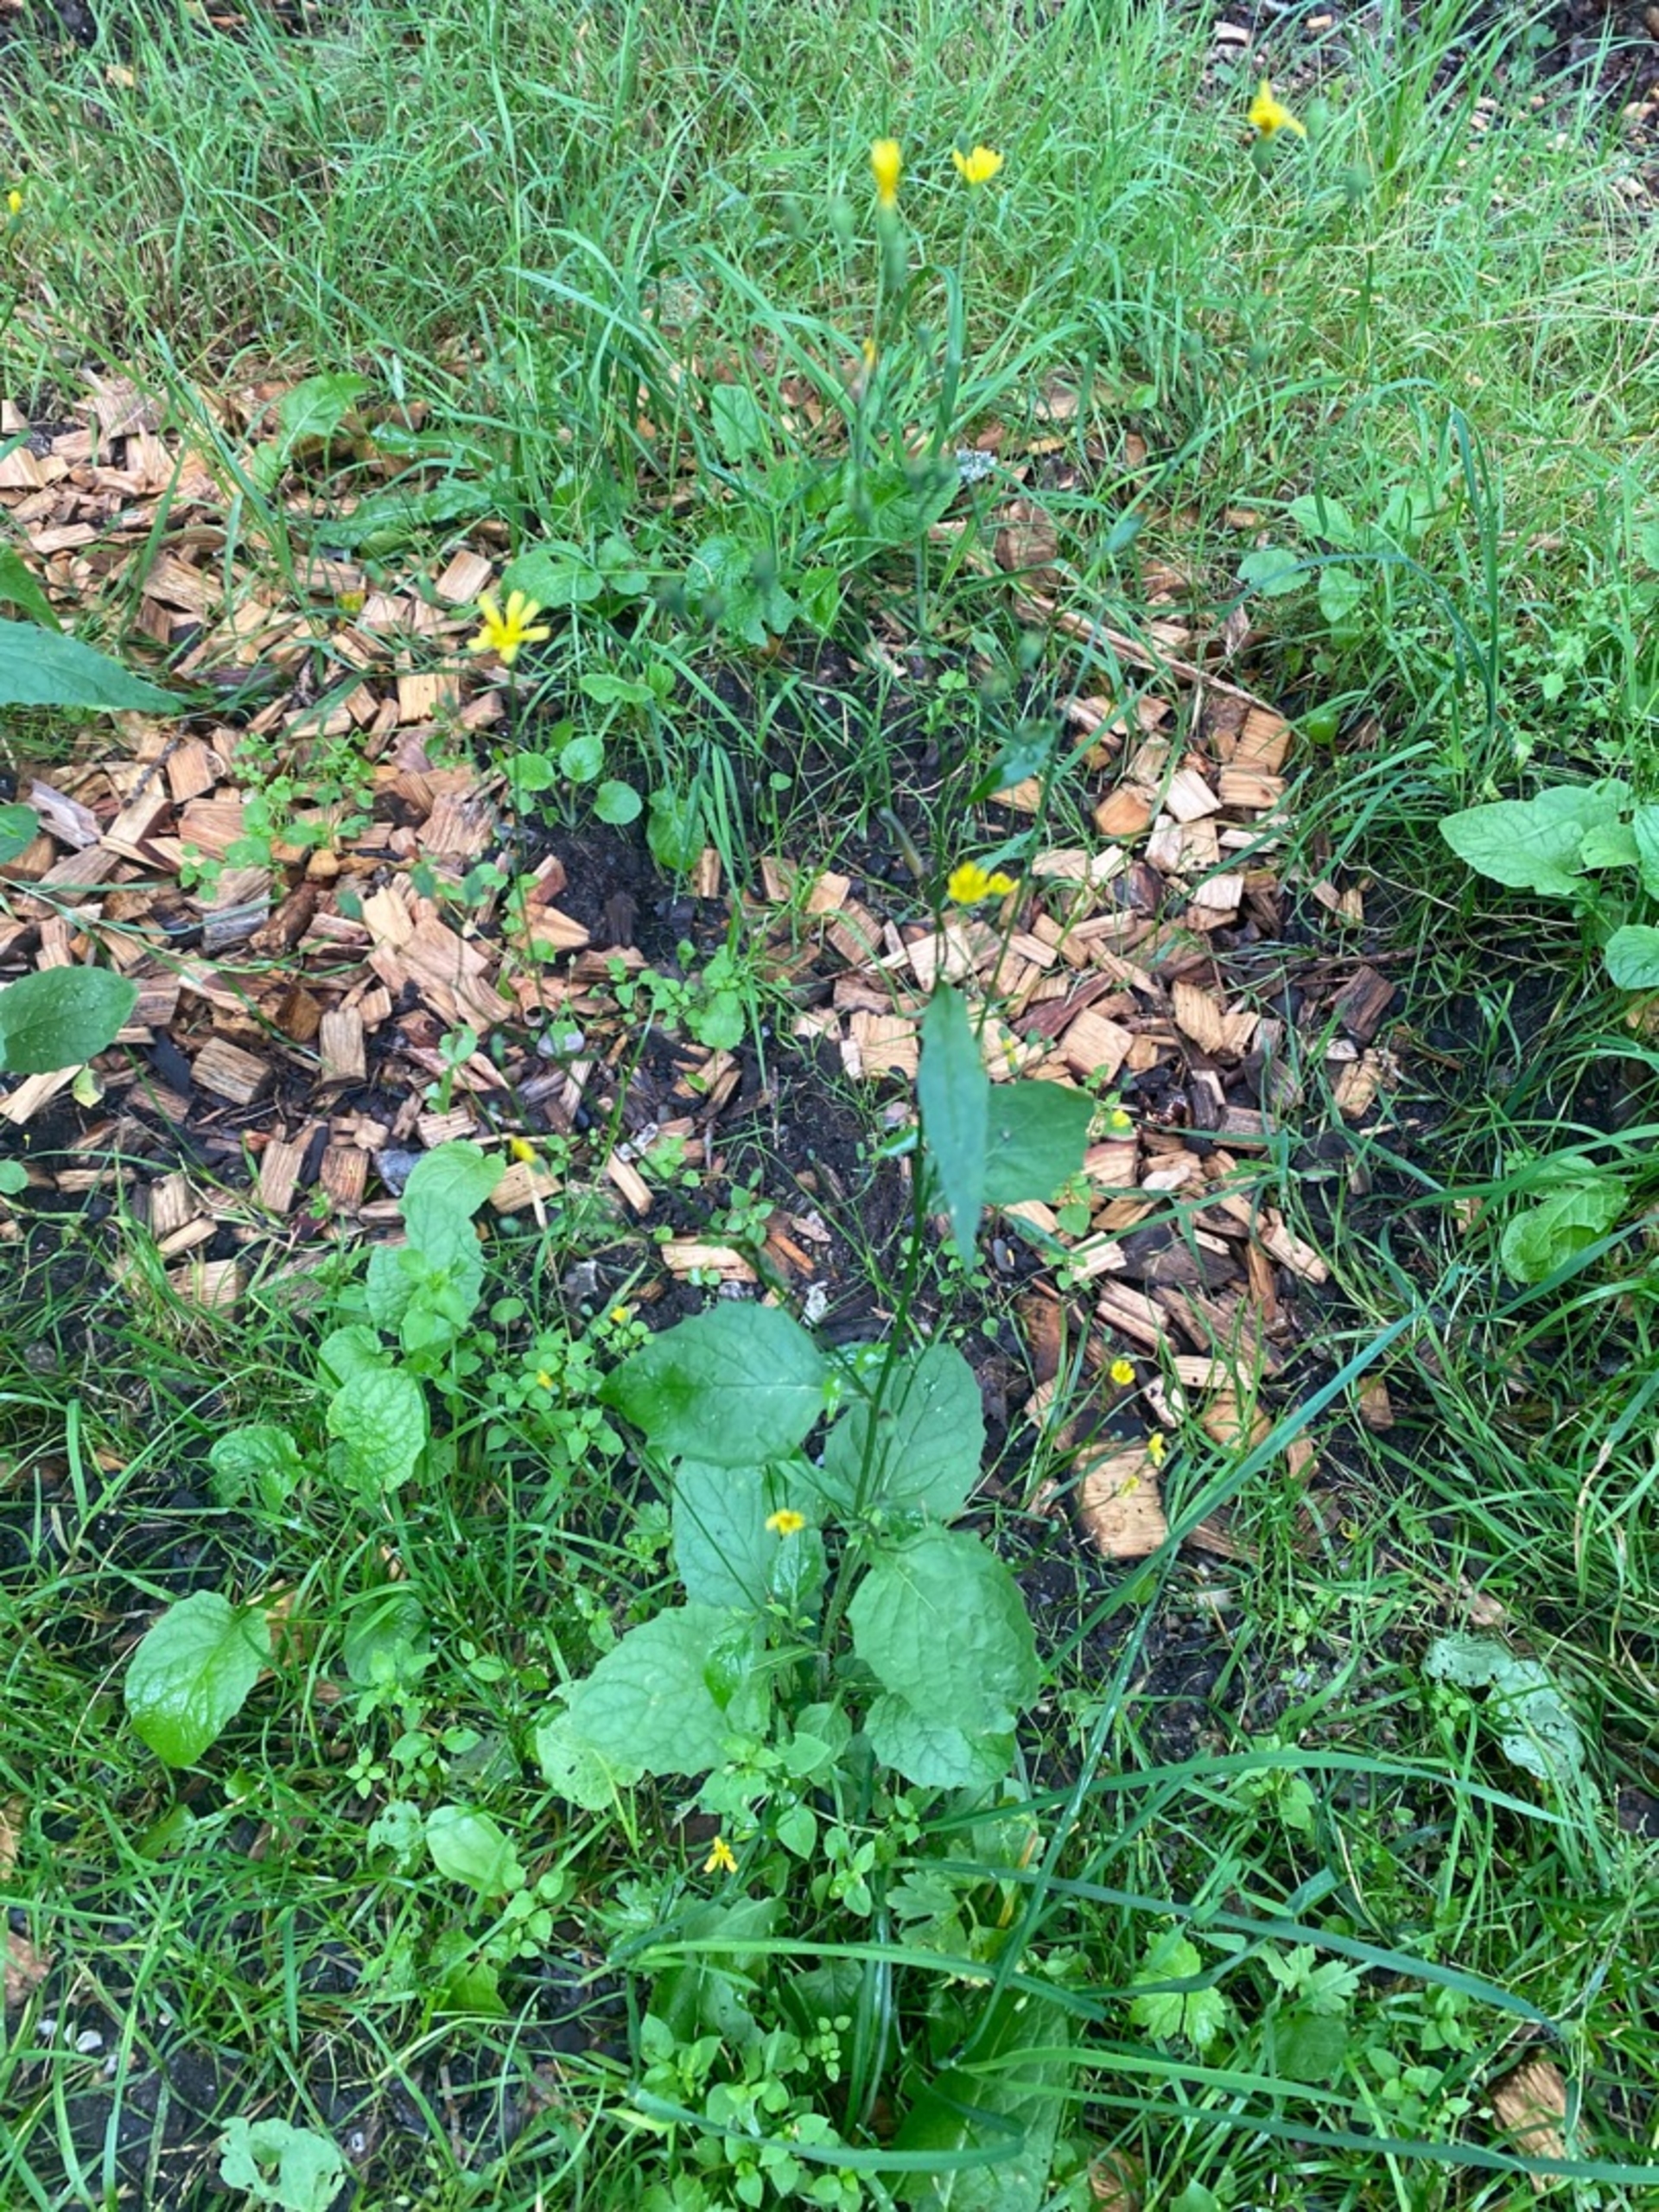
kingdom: Plantae
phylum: Tracheophyta
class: Magnoliopsida
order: Asterales
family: Asteraceae
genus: Lapsana
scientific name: Lapsana communis
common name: Haremad
